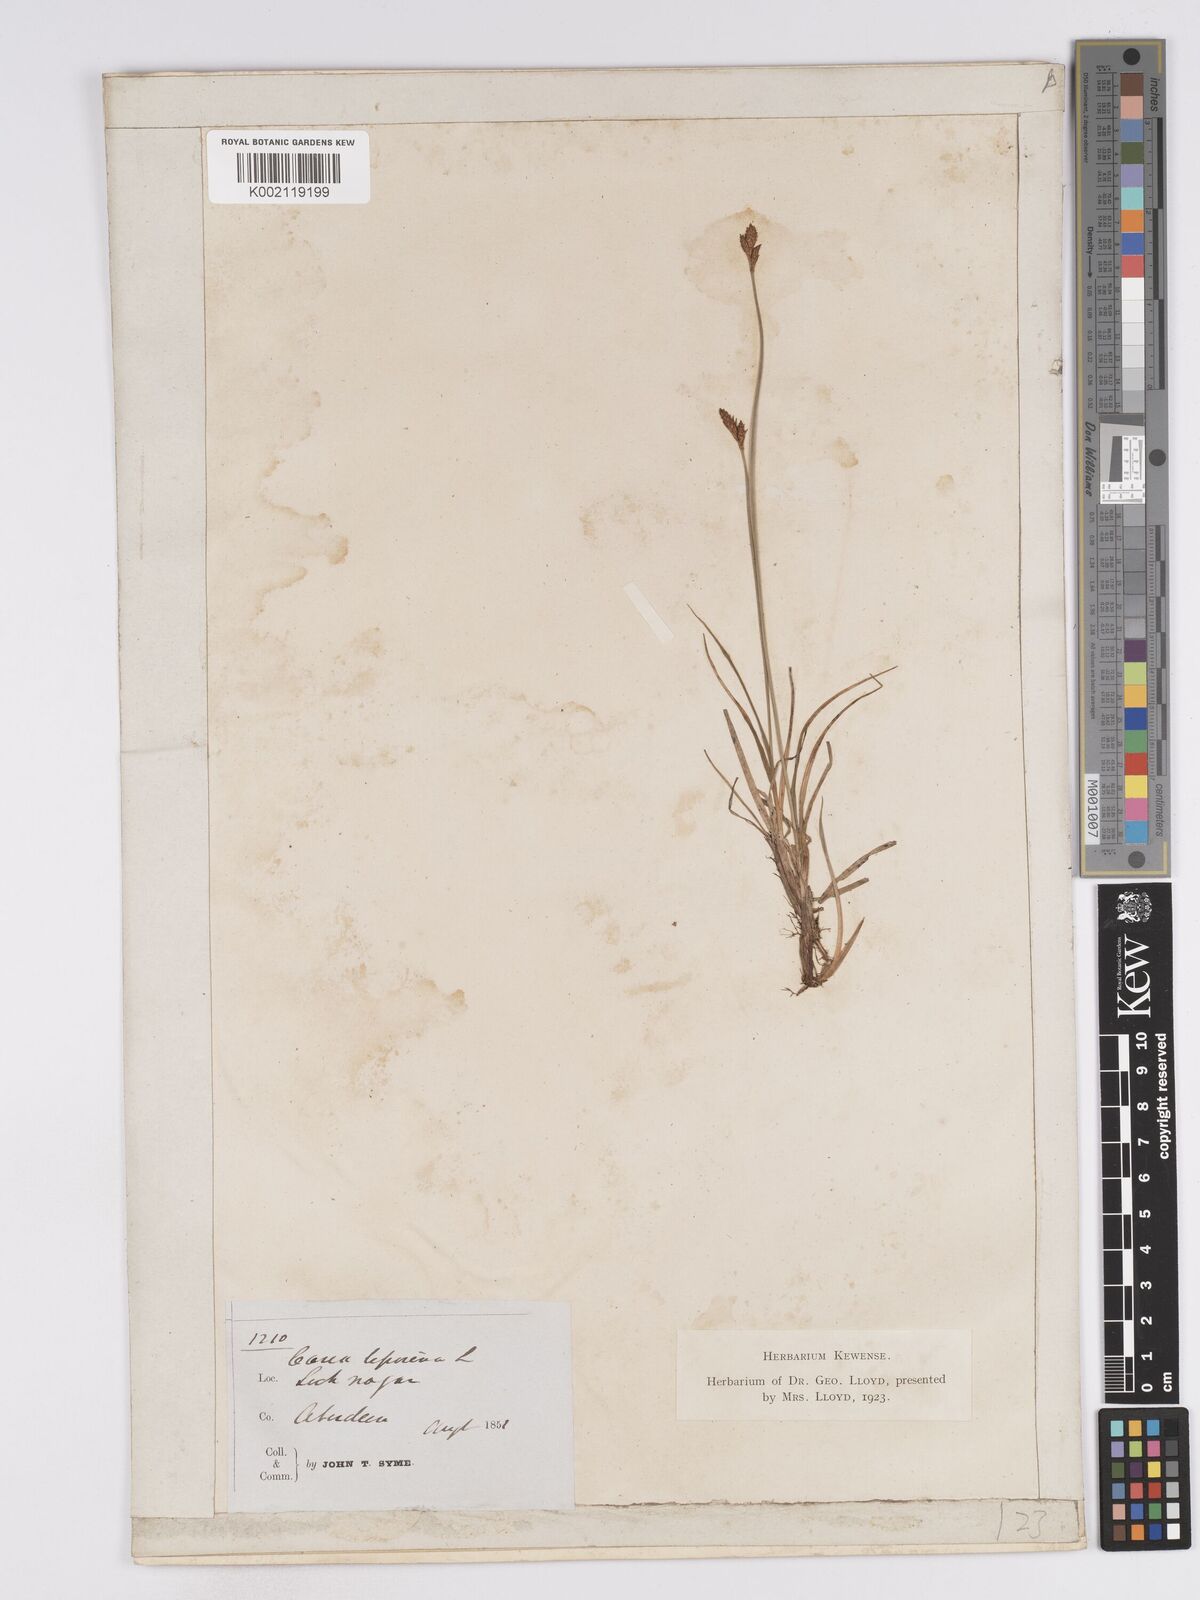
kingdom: Plantae
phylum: Tracheophyta
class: Liliopsida
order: Poales
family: Cyperaceae
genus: Carex
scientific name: Carex lachenalii
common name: Hare's-foot sedge
